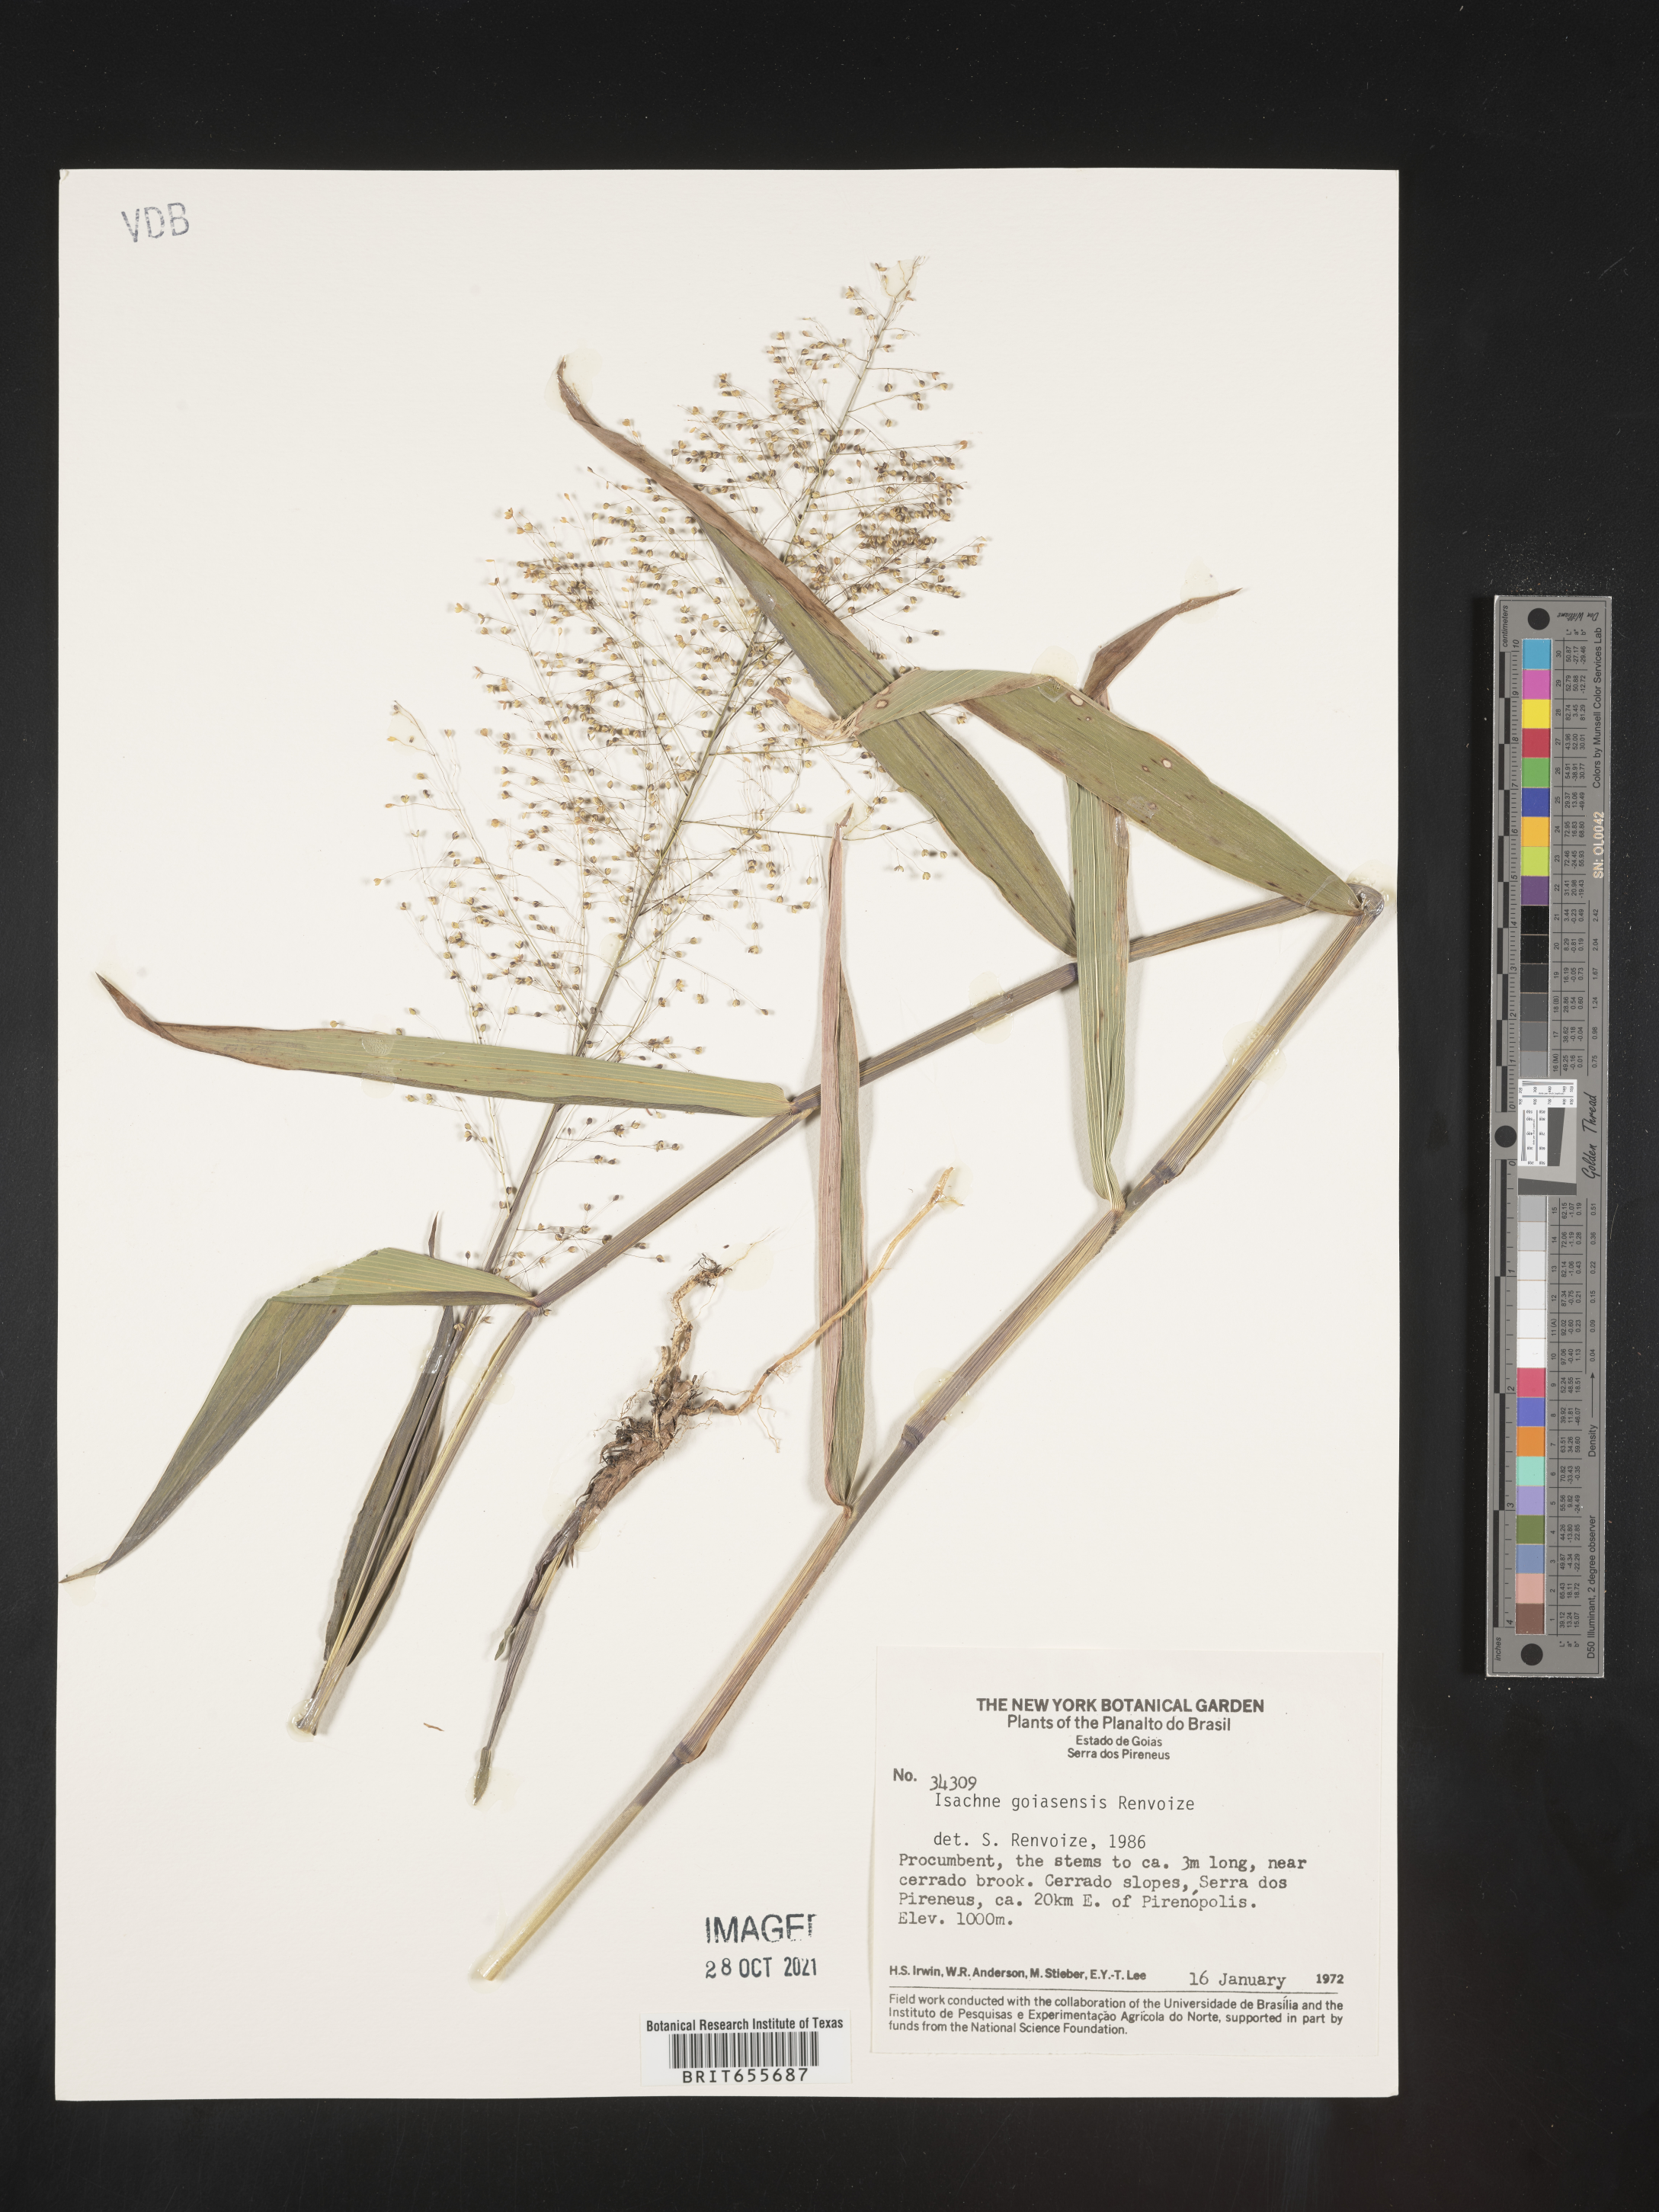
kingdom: Plantae
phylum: Tracheophyta
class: Liliopsida
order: Poales
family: Poaceae
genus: Isachne
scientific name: Isachne
